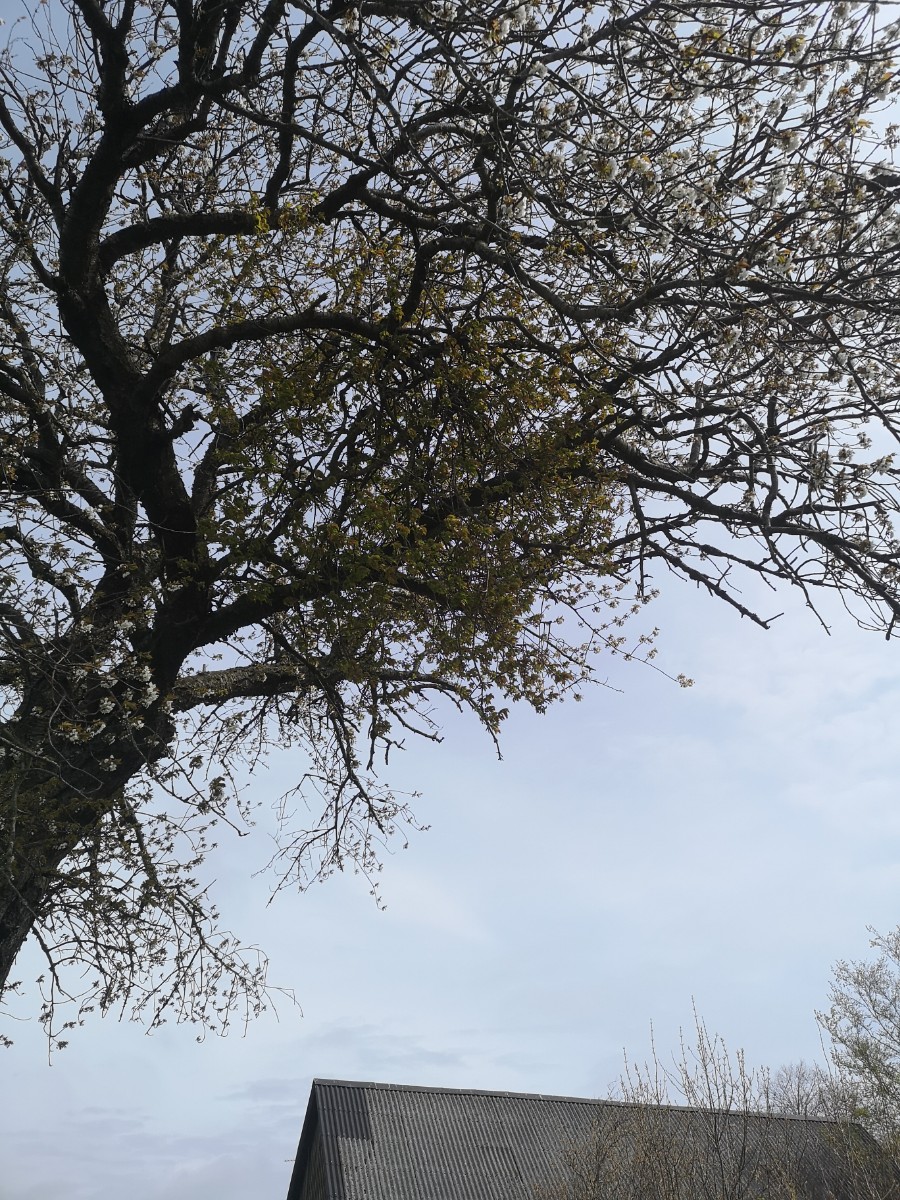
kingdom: Fungi
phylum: Ascomycota
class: Taphrinomycetes
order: Taphrinales
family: Taphrinaceae
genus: Taphrina
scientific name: Taphrina wiesneri
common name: Cherry leaf curl
